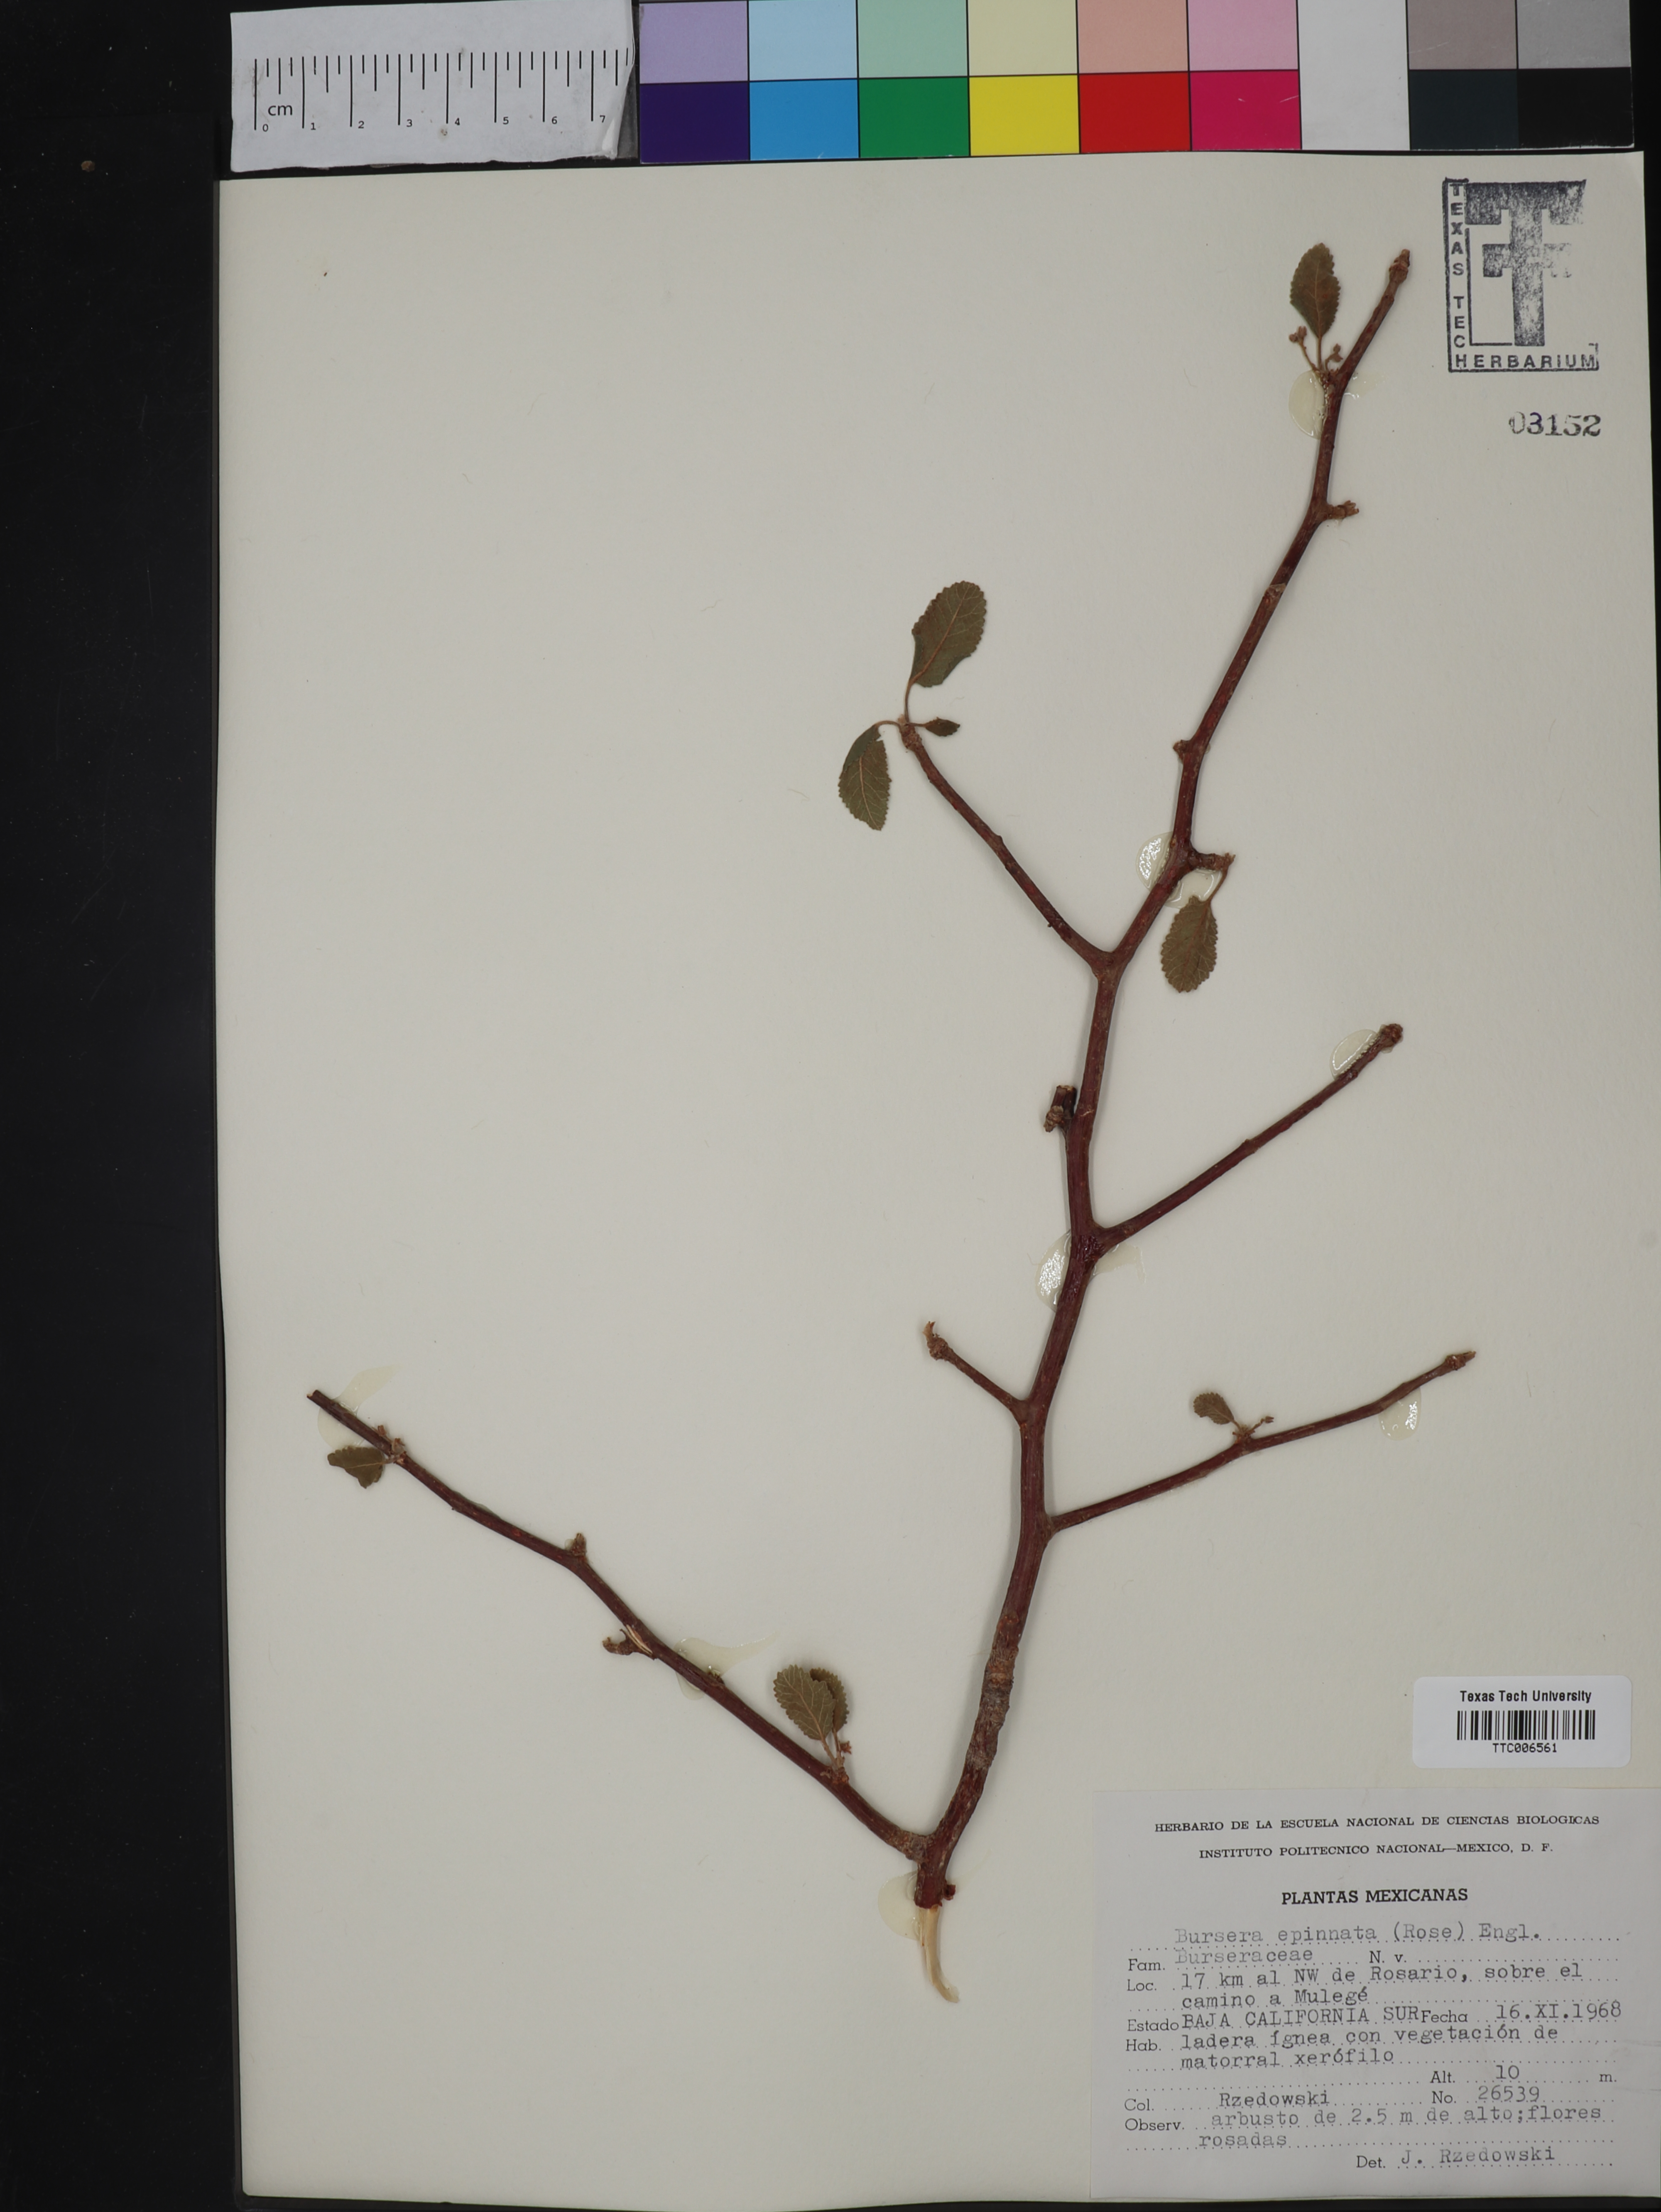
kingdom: Plantae
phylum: Tracheophyta
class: Magnoliopsida
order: Sapindales
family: Burseraceae
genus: Bursera
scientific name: Bursera epinnata
